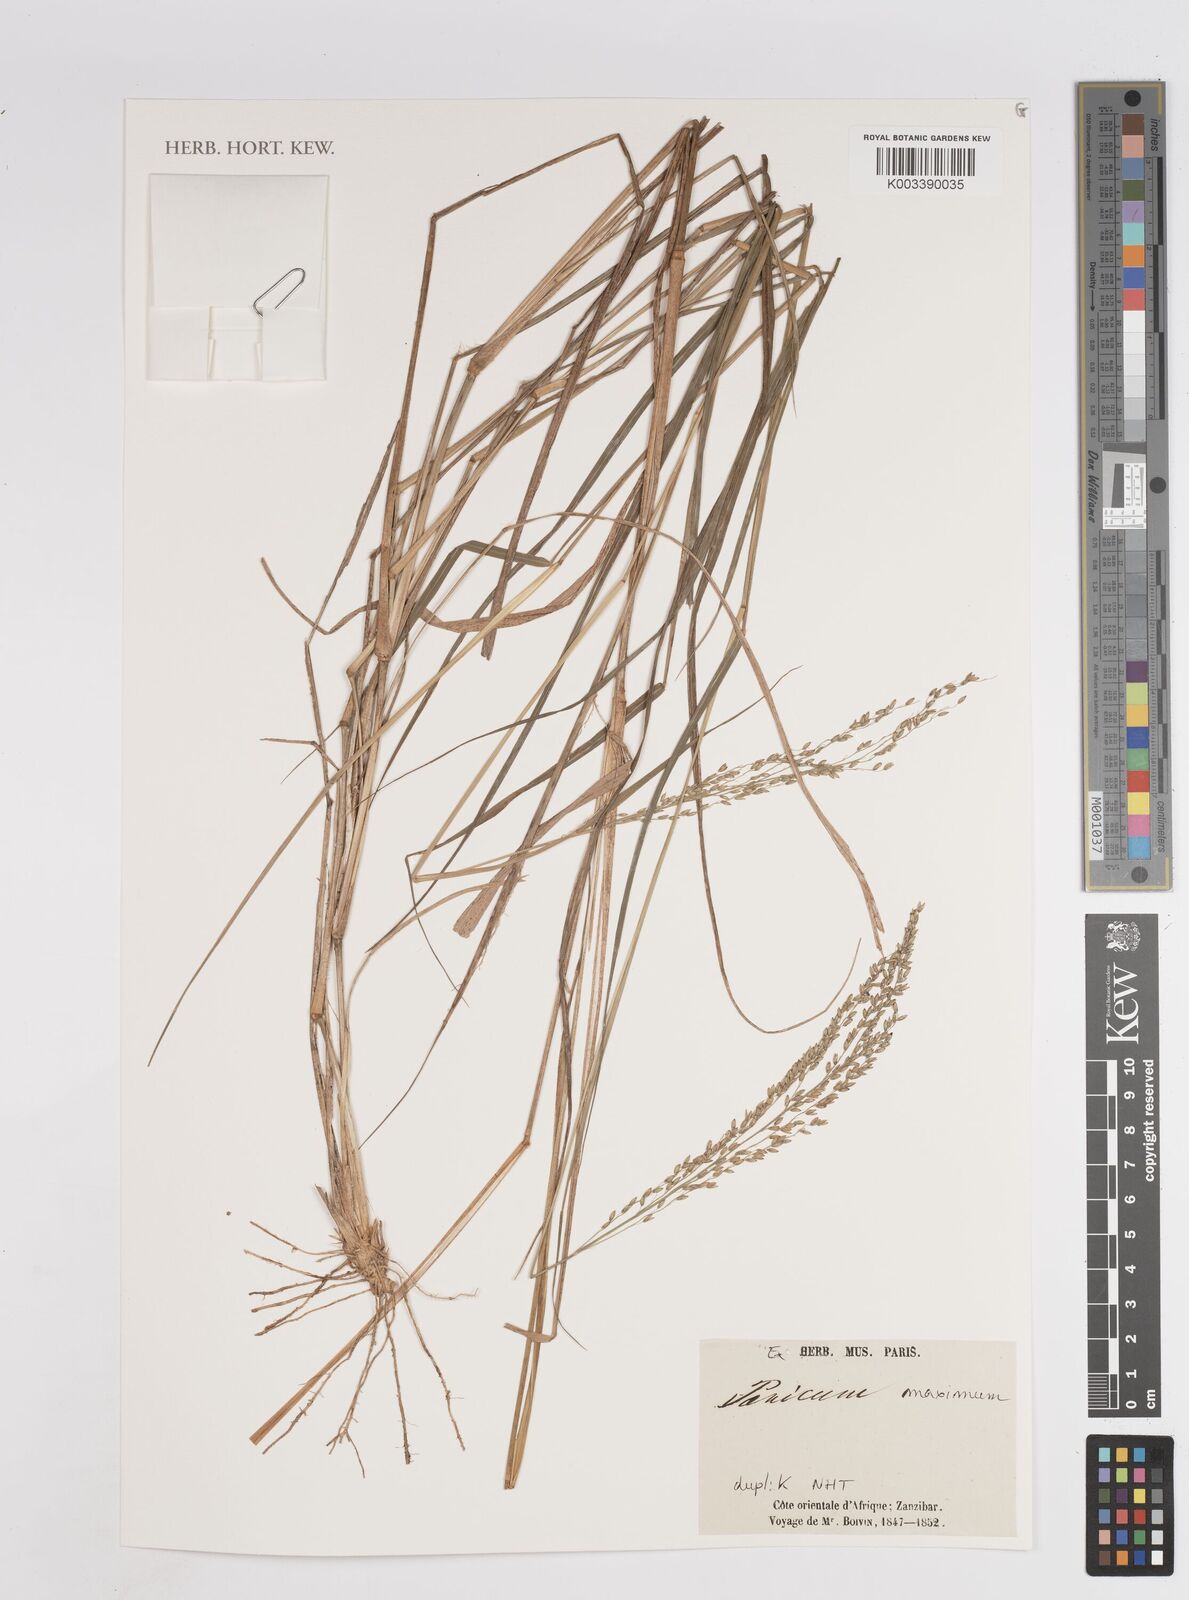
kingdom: Plantae
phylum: Tracheophyta
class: Liliopsida
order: Poales
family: Poaceae
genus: Megathyrsus
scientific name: Megathyrsus maximus
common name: Guineagrass
